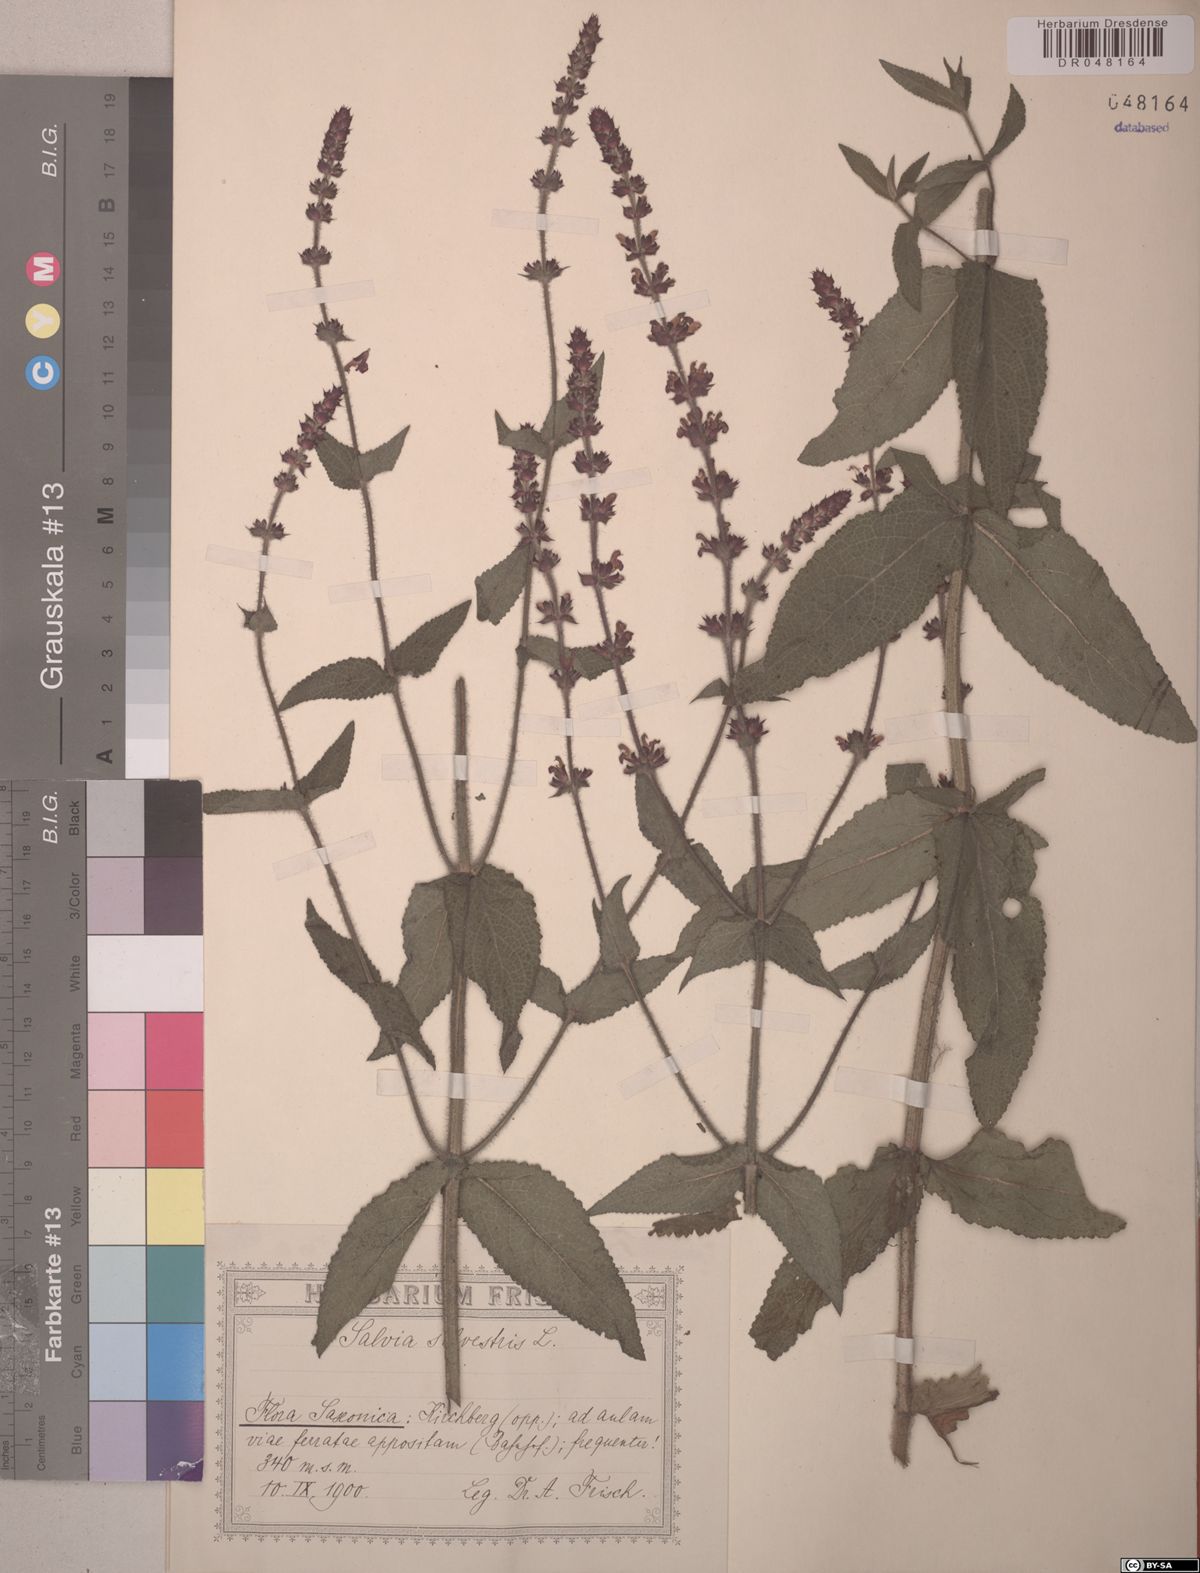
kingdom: Plantae
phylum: Tracheophyta
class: Magnoliopsida
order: Lamiales
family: Lamiaceae
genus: Salvia
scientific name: Salvia sylvestris
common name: Woodland sage
